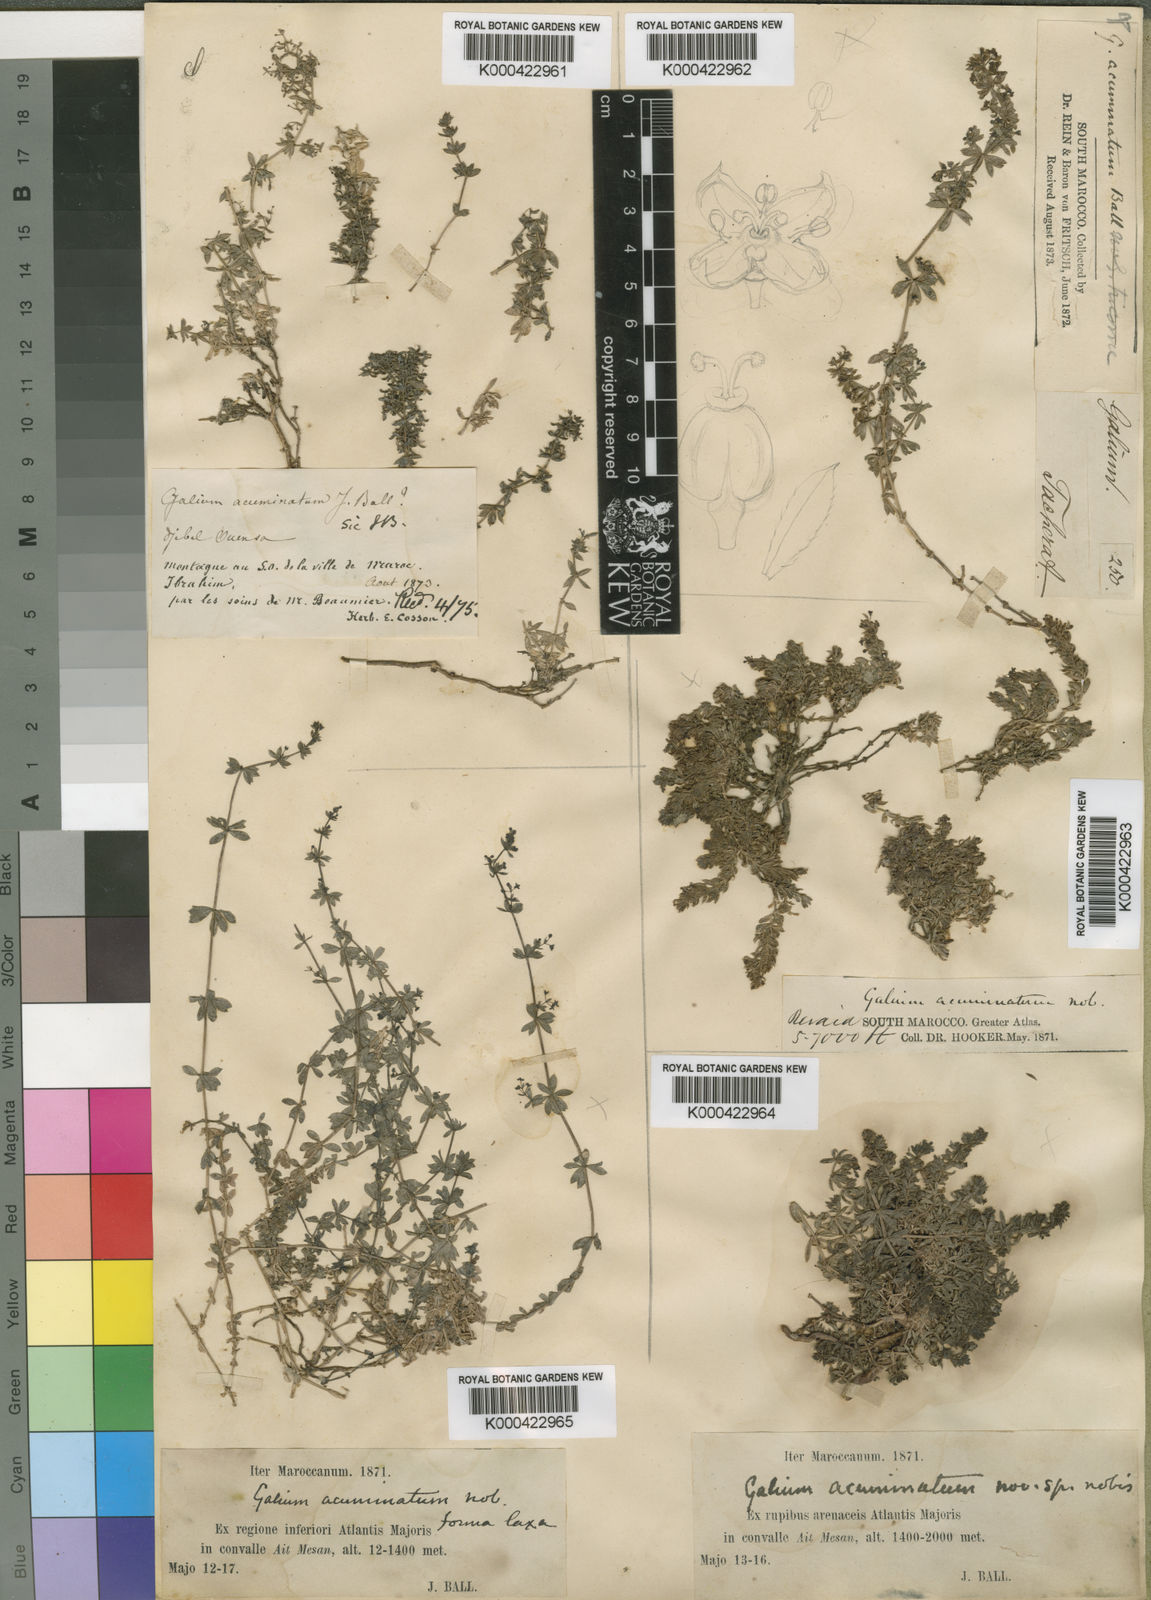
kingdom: Plantae
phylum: Tracheophyta
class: Magnoliopsida
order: Gentianales
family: Rubiaceae
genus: Galium
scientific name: Galium acuminatum
